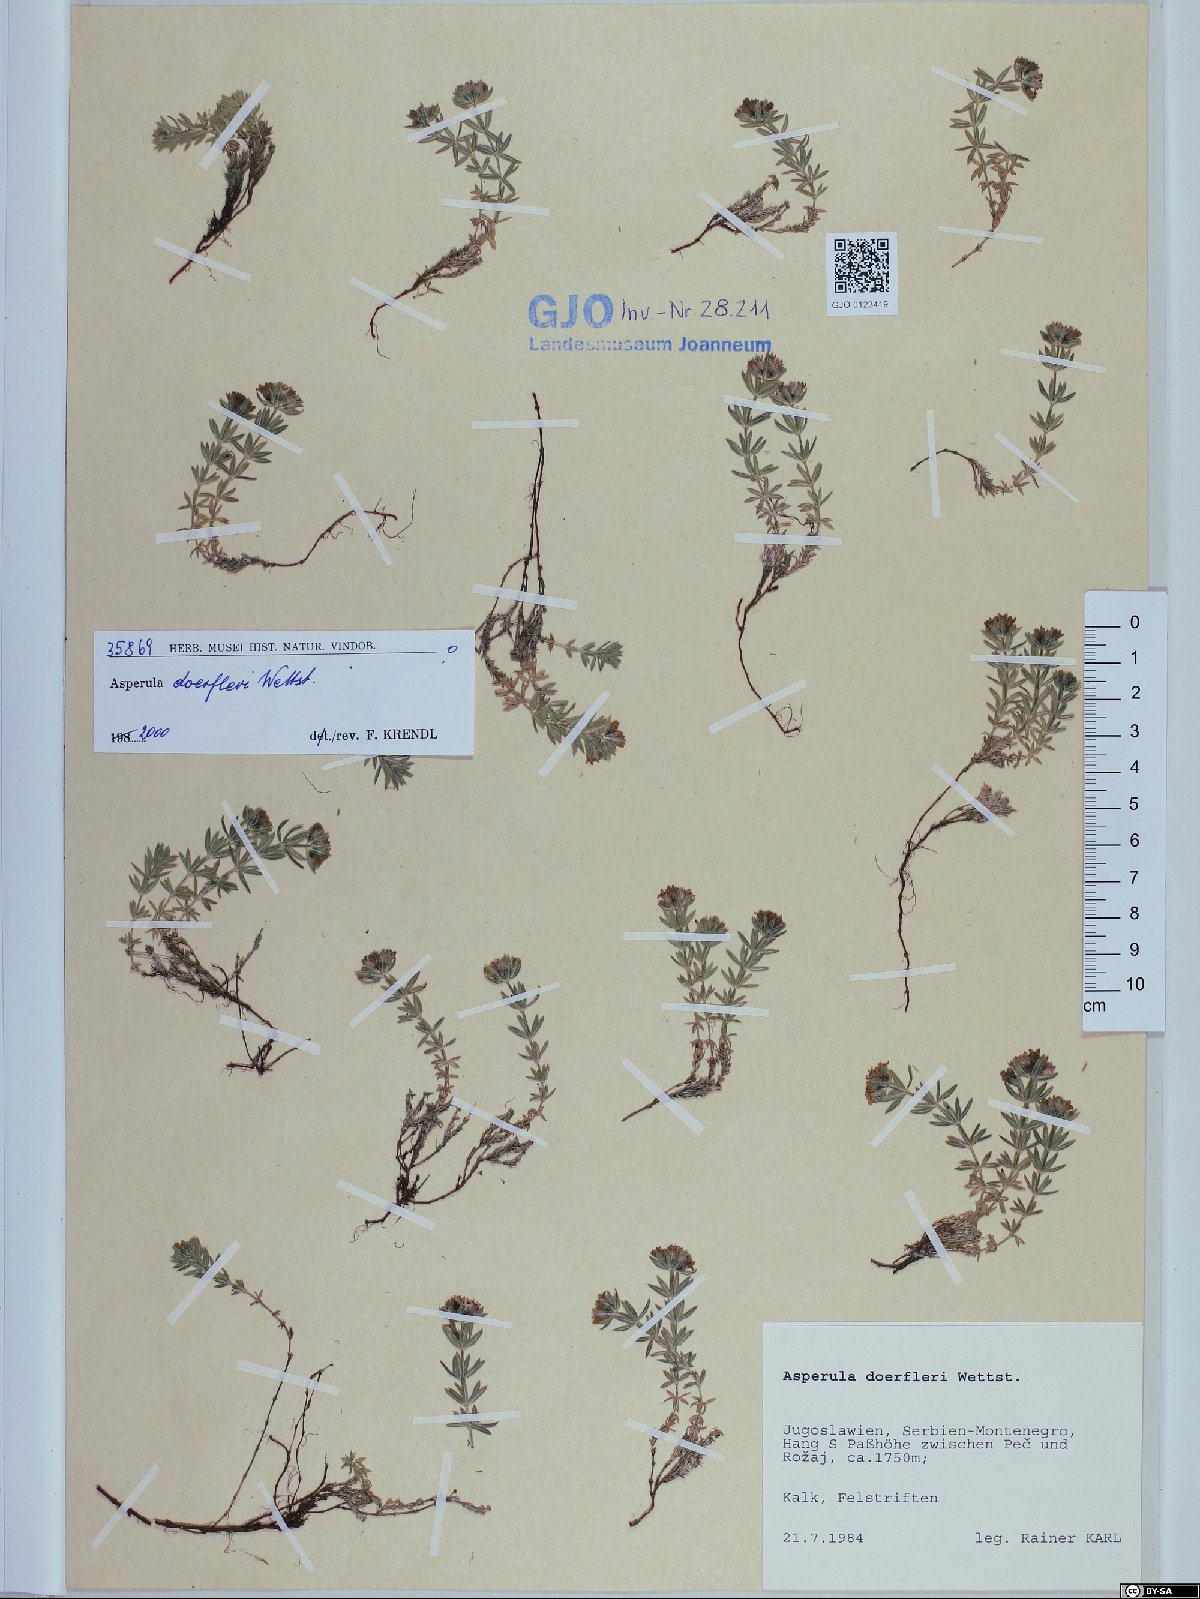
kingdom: Plantae
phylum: Tracheophyta
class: Magnoliopsida
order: Gentianales
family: Rubiaceae
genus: Hexaphylla
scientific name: Hexaphylla doerfleri
